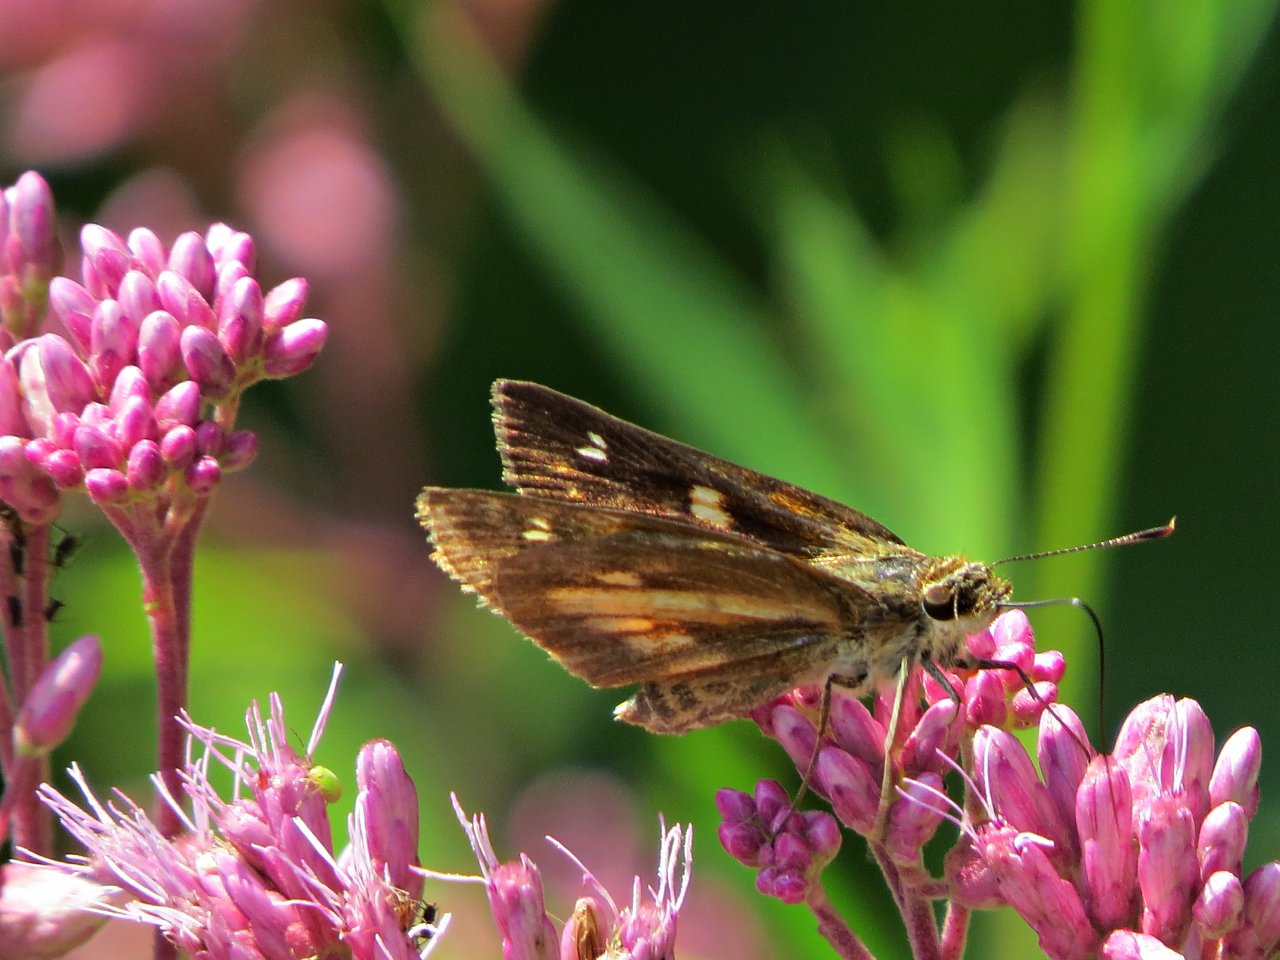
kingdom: Animalia
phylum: Arthropoda
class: Insecta
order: Lepidoptera
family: Hesperiidae
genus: Poanes
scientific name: Poanes viator
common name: Broad-winged Skipper
